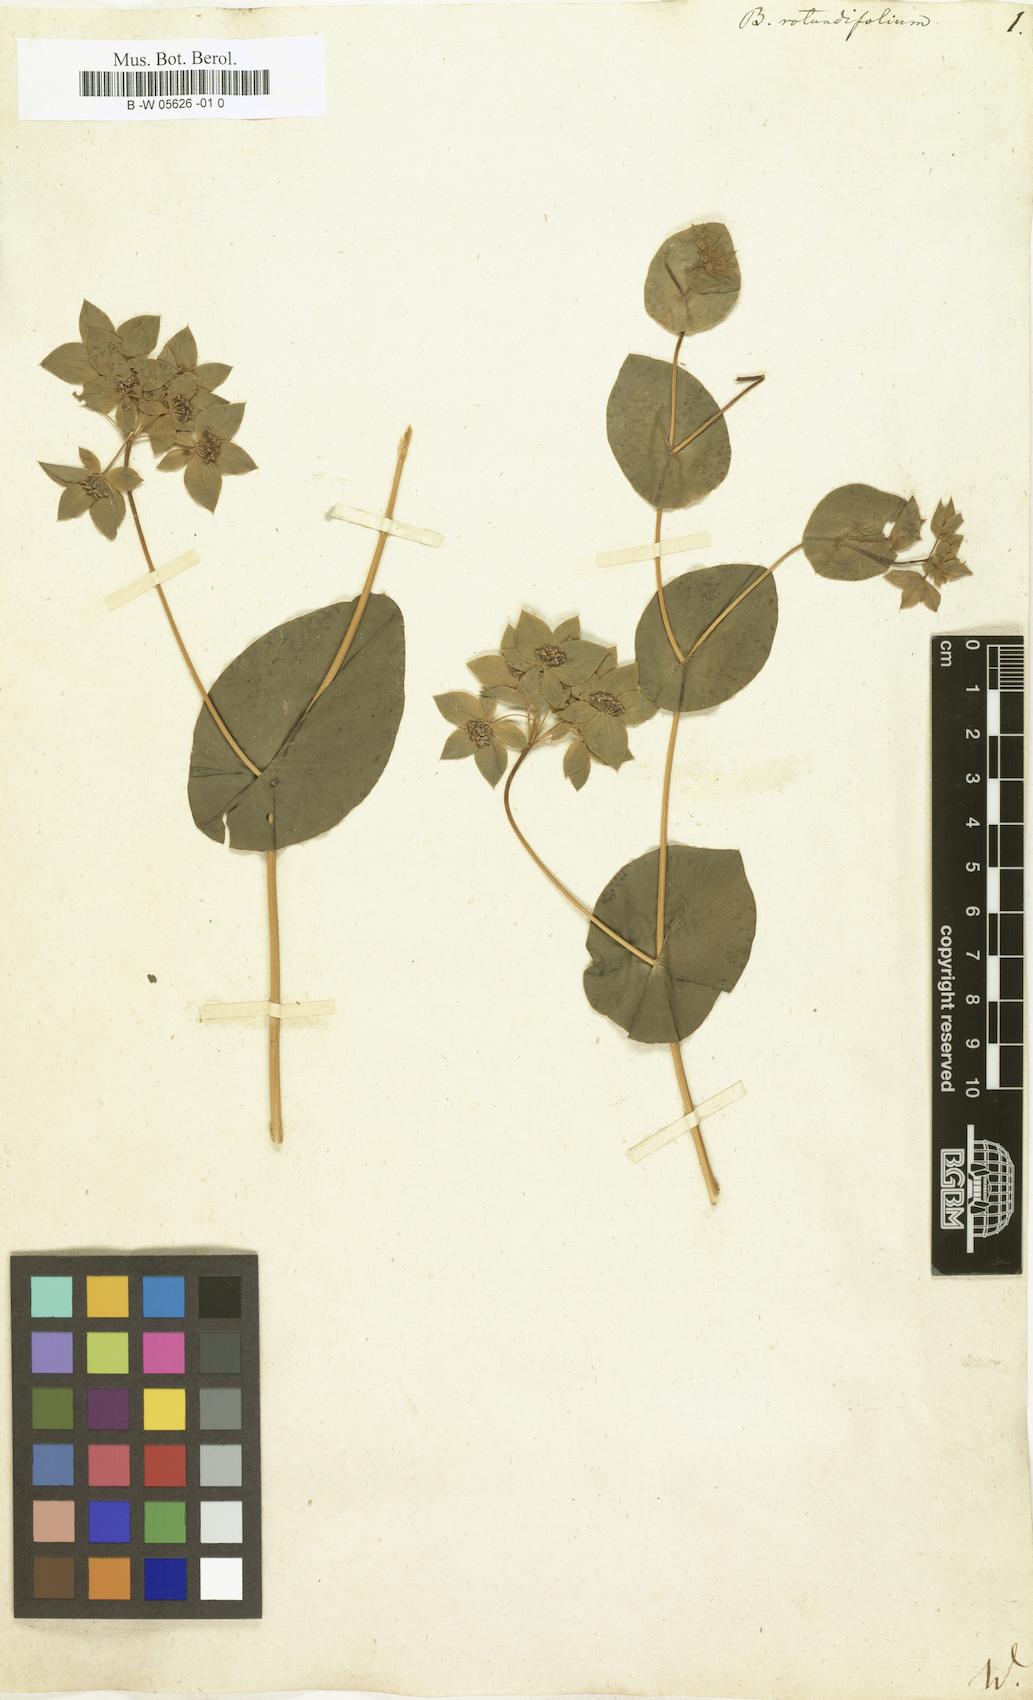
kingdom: Plantae
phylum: Tracheophyta
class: Magnoliopsida
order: Apiales
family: Apiaceae
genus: Bupleurum
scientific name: Bupleurum rotundifolium
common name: Thorow-wax
